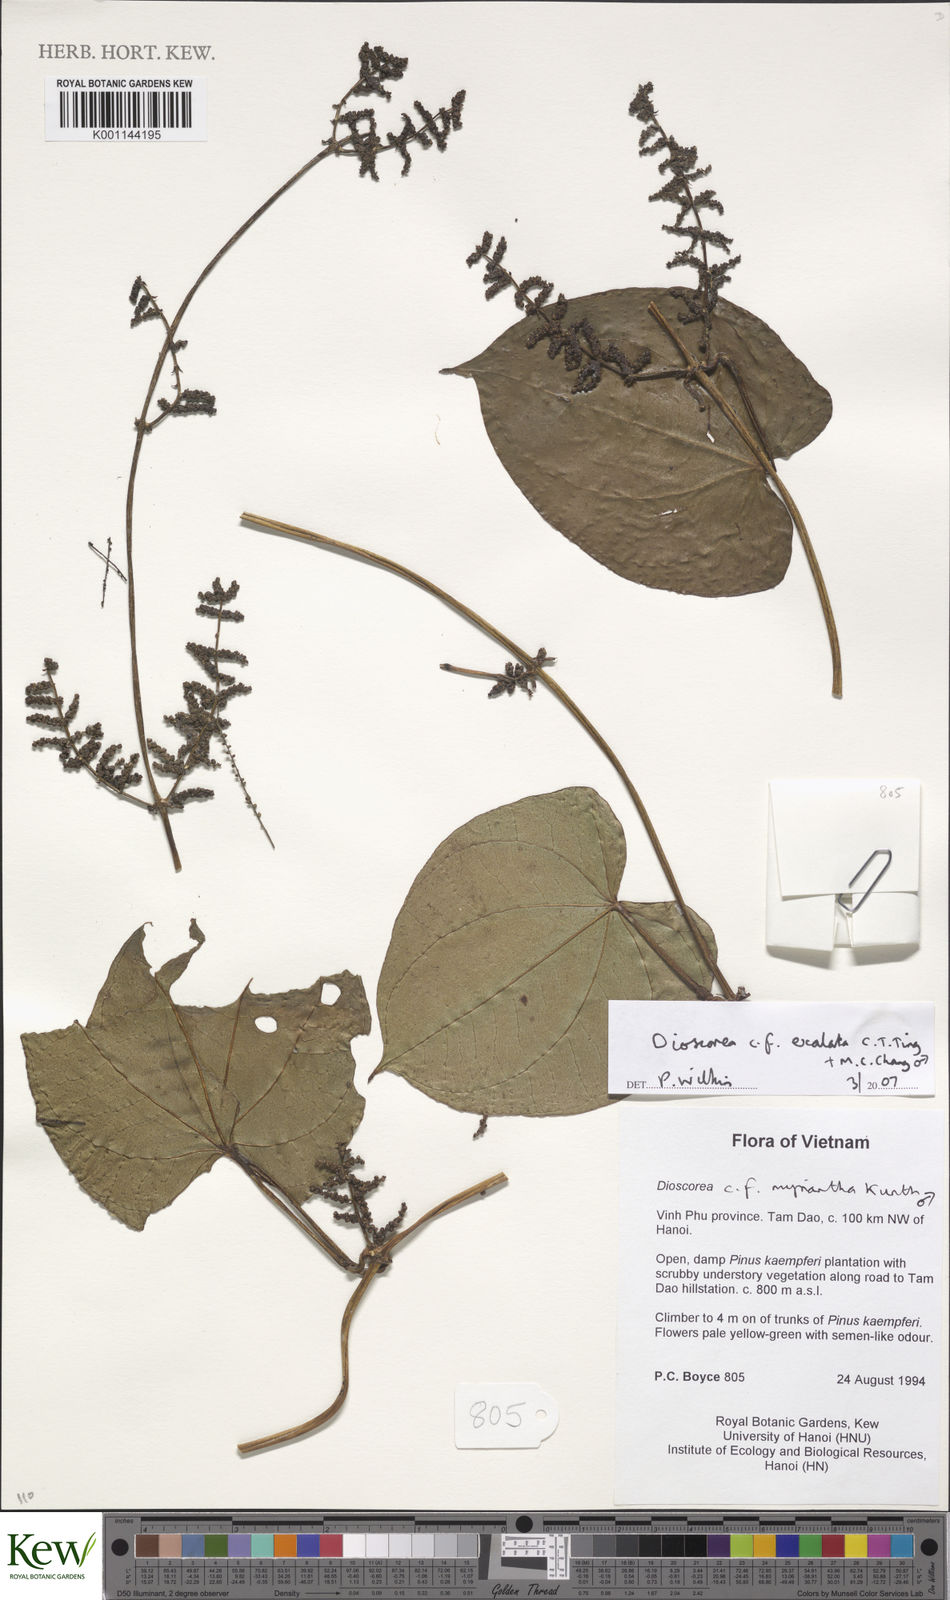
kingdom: Plantae
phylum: Tracheophyta
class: Liliopsida
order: Dioscoreales
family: Dioscoreaceae
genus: Dioscorea
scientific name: Dioscorea exalata
